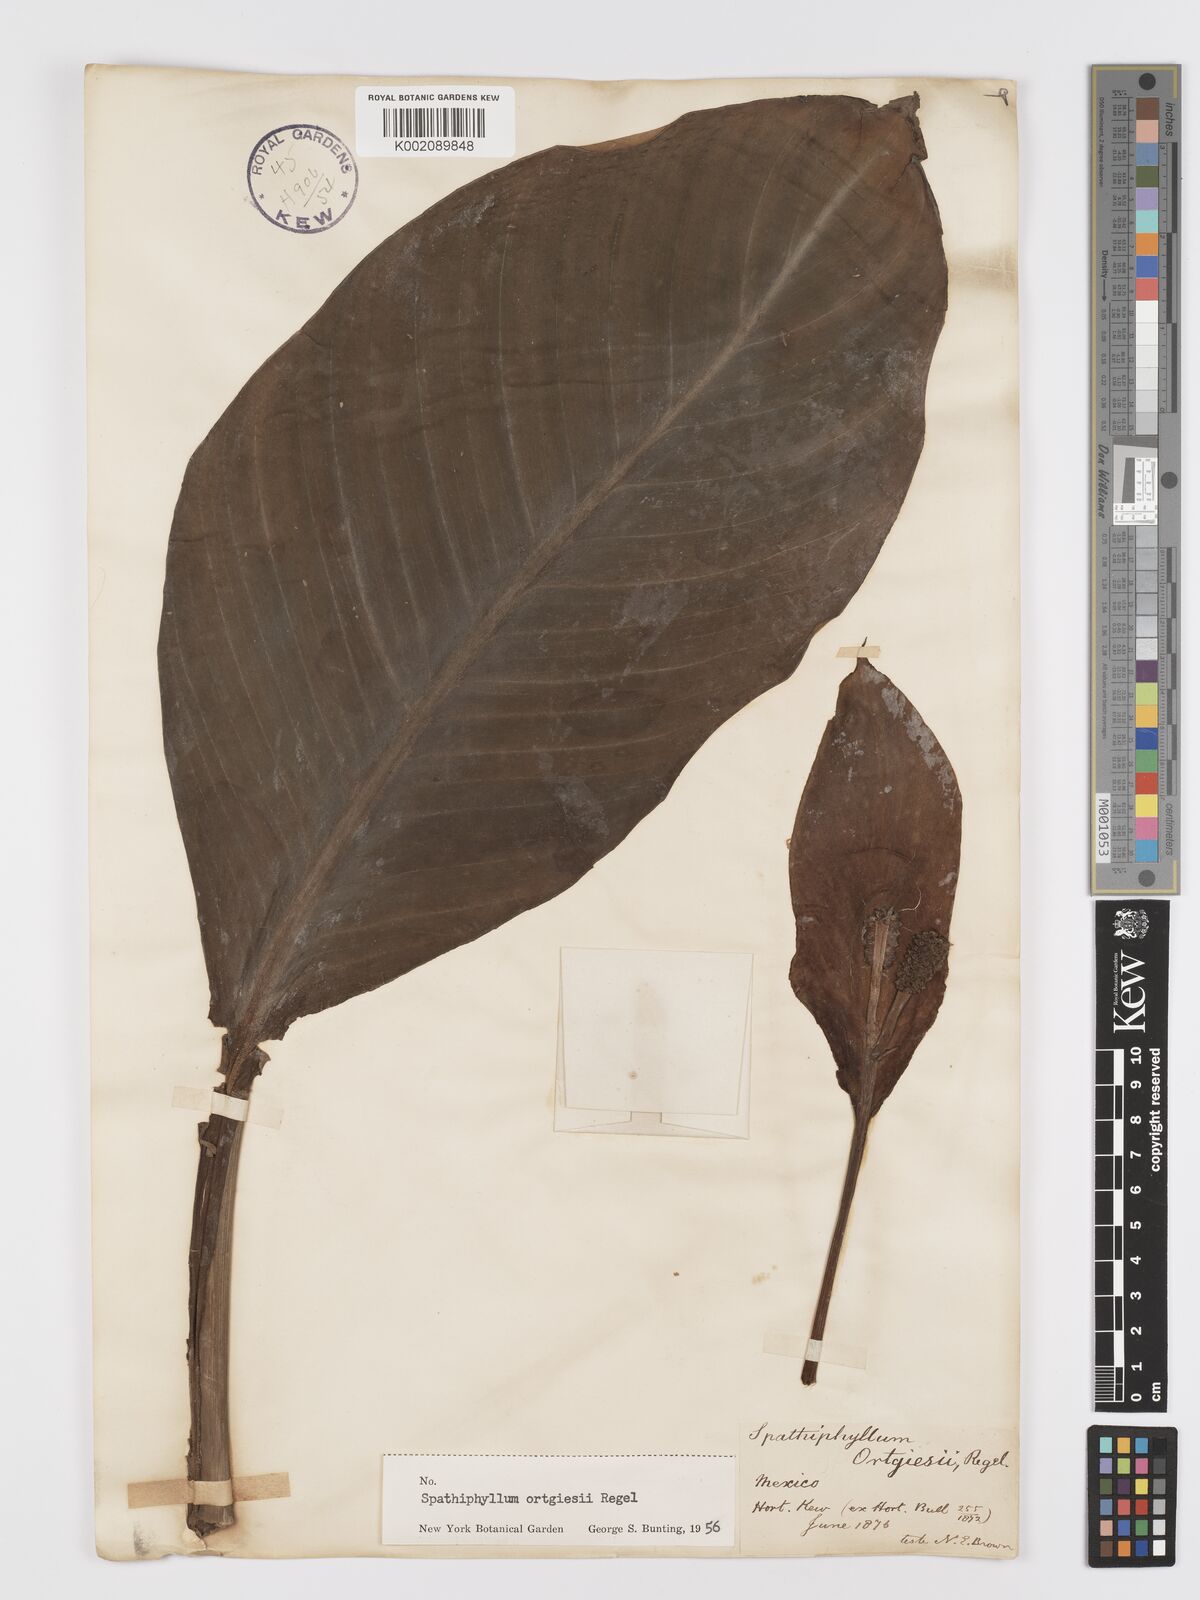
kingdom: Plantae
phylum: Tracheophyta
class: Liliopsida
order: Alismatales
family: Araceae
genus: Spathiphyllum
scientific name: Spathiphyllum ortgiesii
